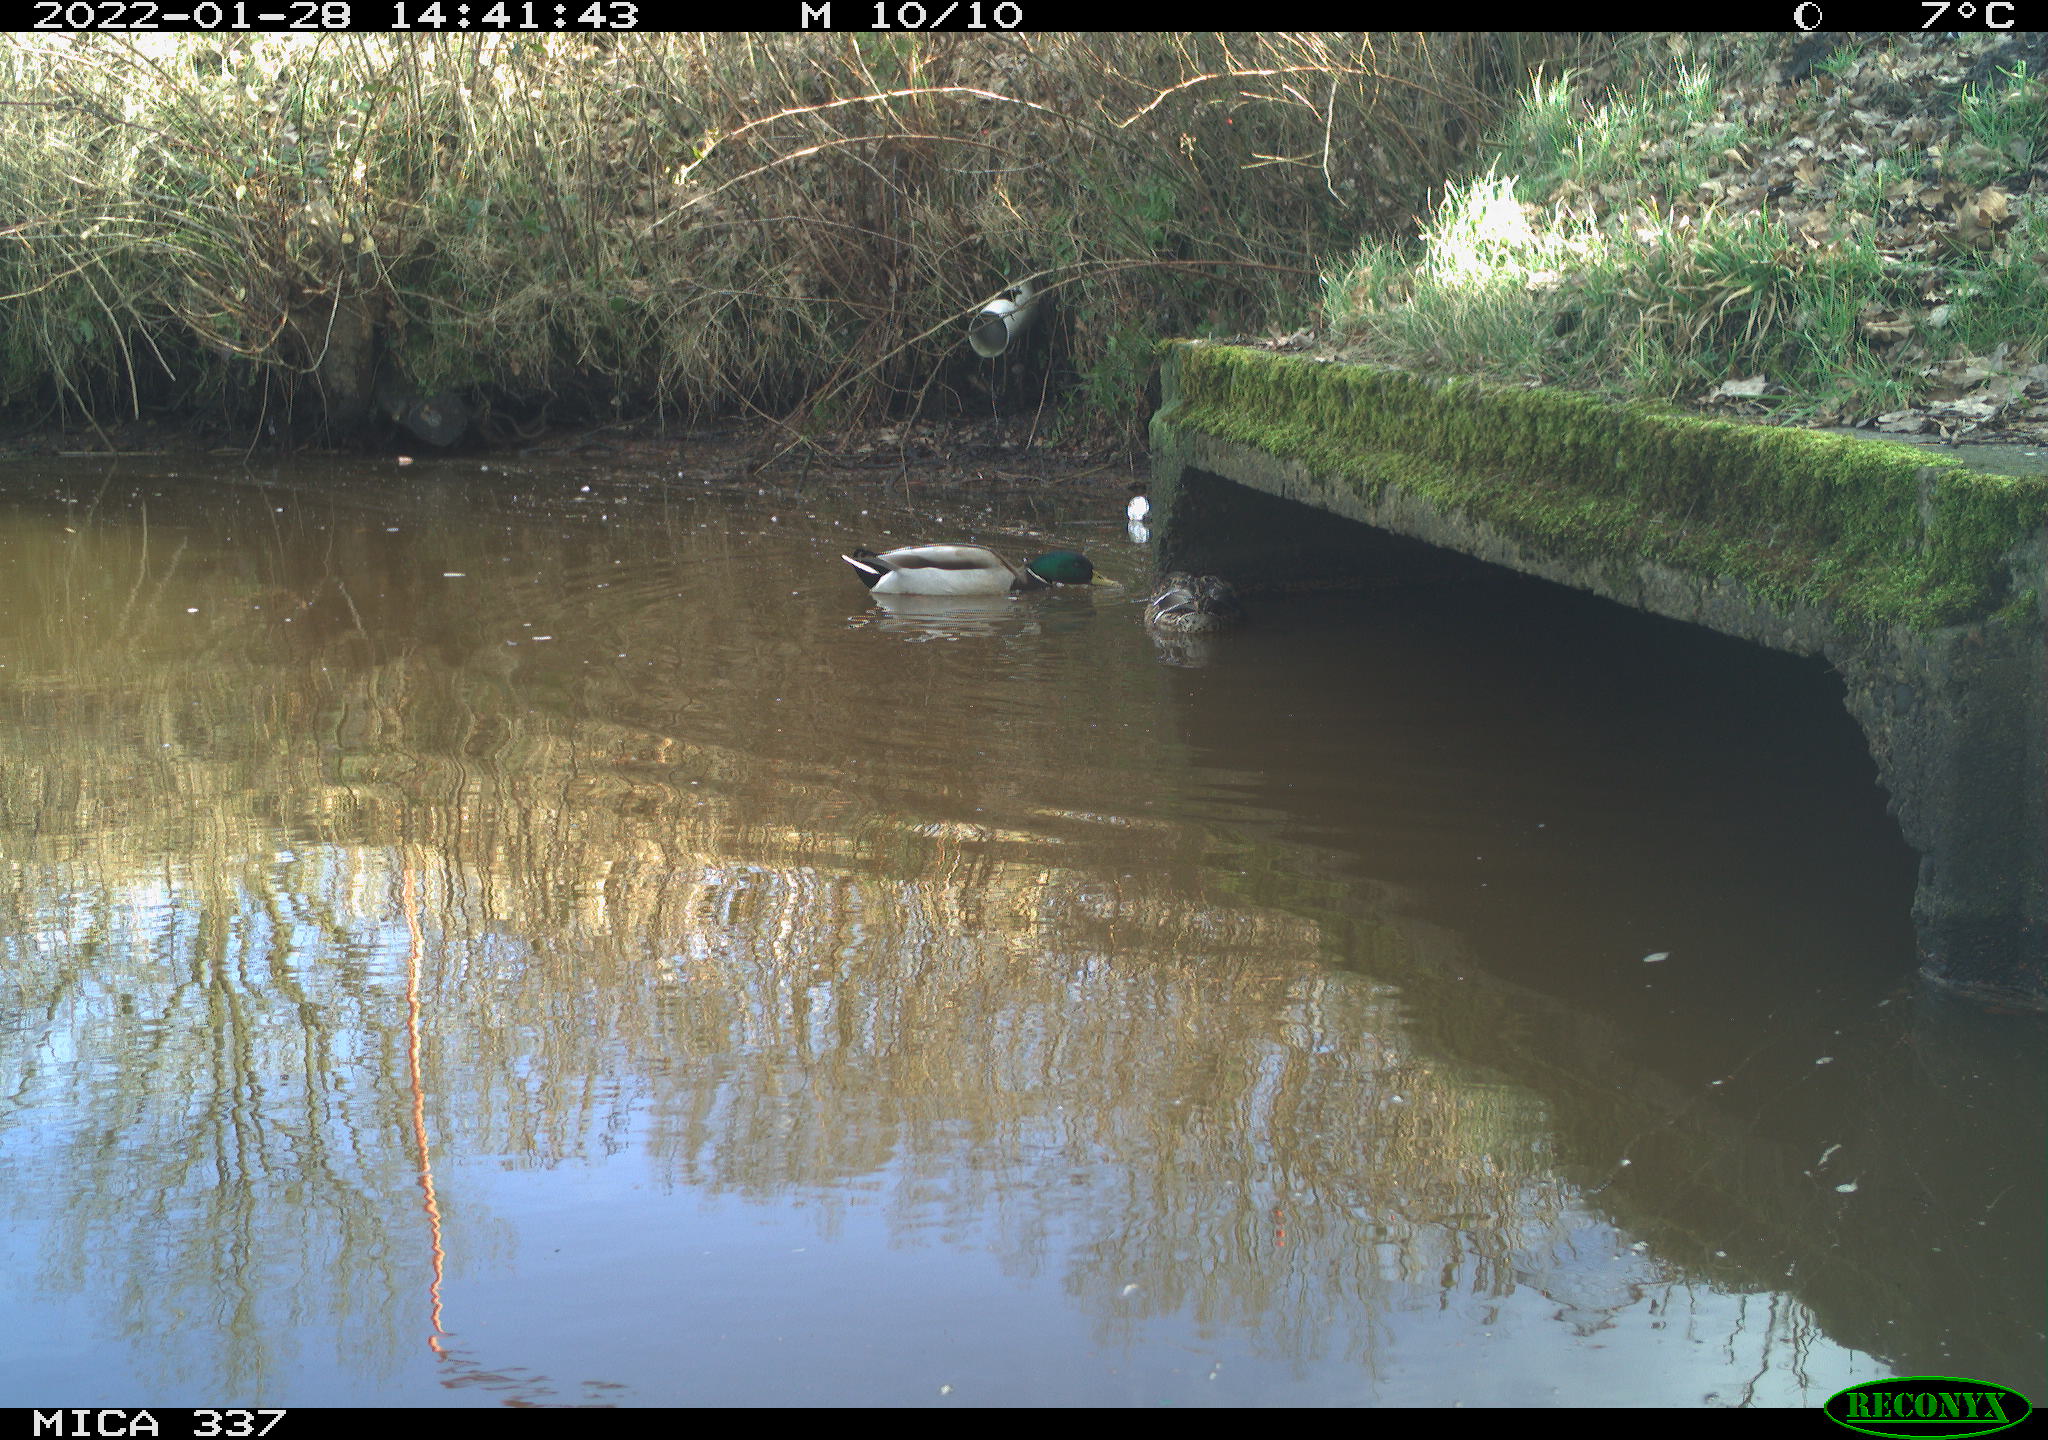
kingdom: Animalia
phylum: Chordata
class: Aves
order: Anseriformes
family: Anatidae
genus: Anas
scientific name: Anas platyrhynchos
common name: Mallard
